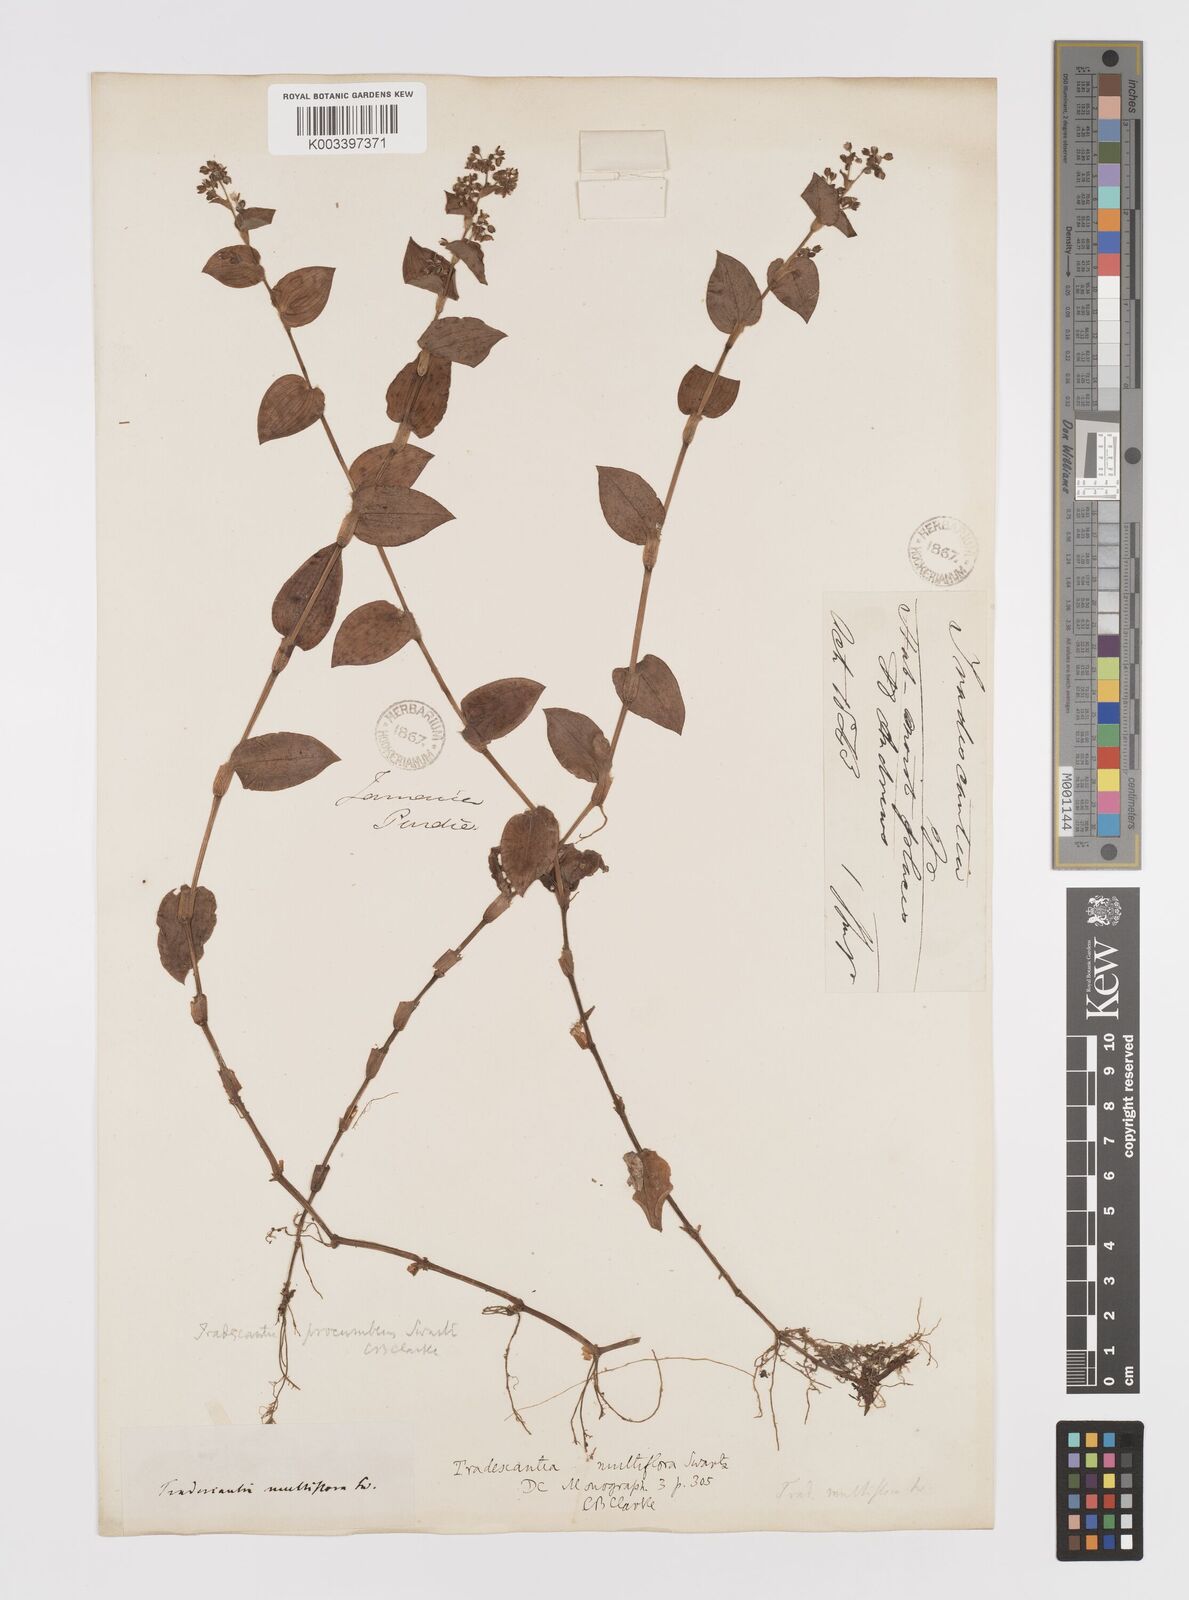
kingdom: Plantae
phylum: Tracheophyta
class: Liliopsida
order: Commelinales
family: Commelinaceae
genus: Callisia
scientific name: Callisia procumbens
